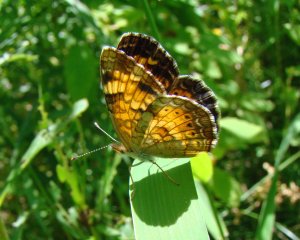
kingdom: Animalia
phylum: Arthropoda
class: Insecta
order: Lepidoptera
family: Nymphalidae
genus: Phyciodes
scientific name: Phyciodes tharos
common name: Northern Crescent
